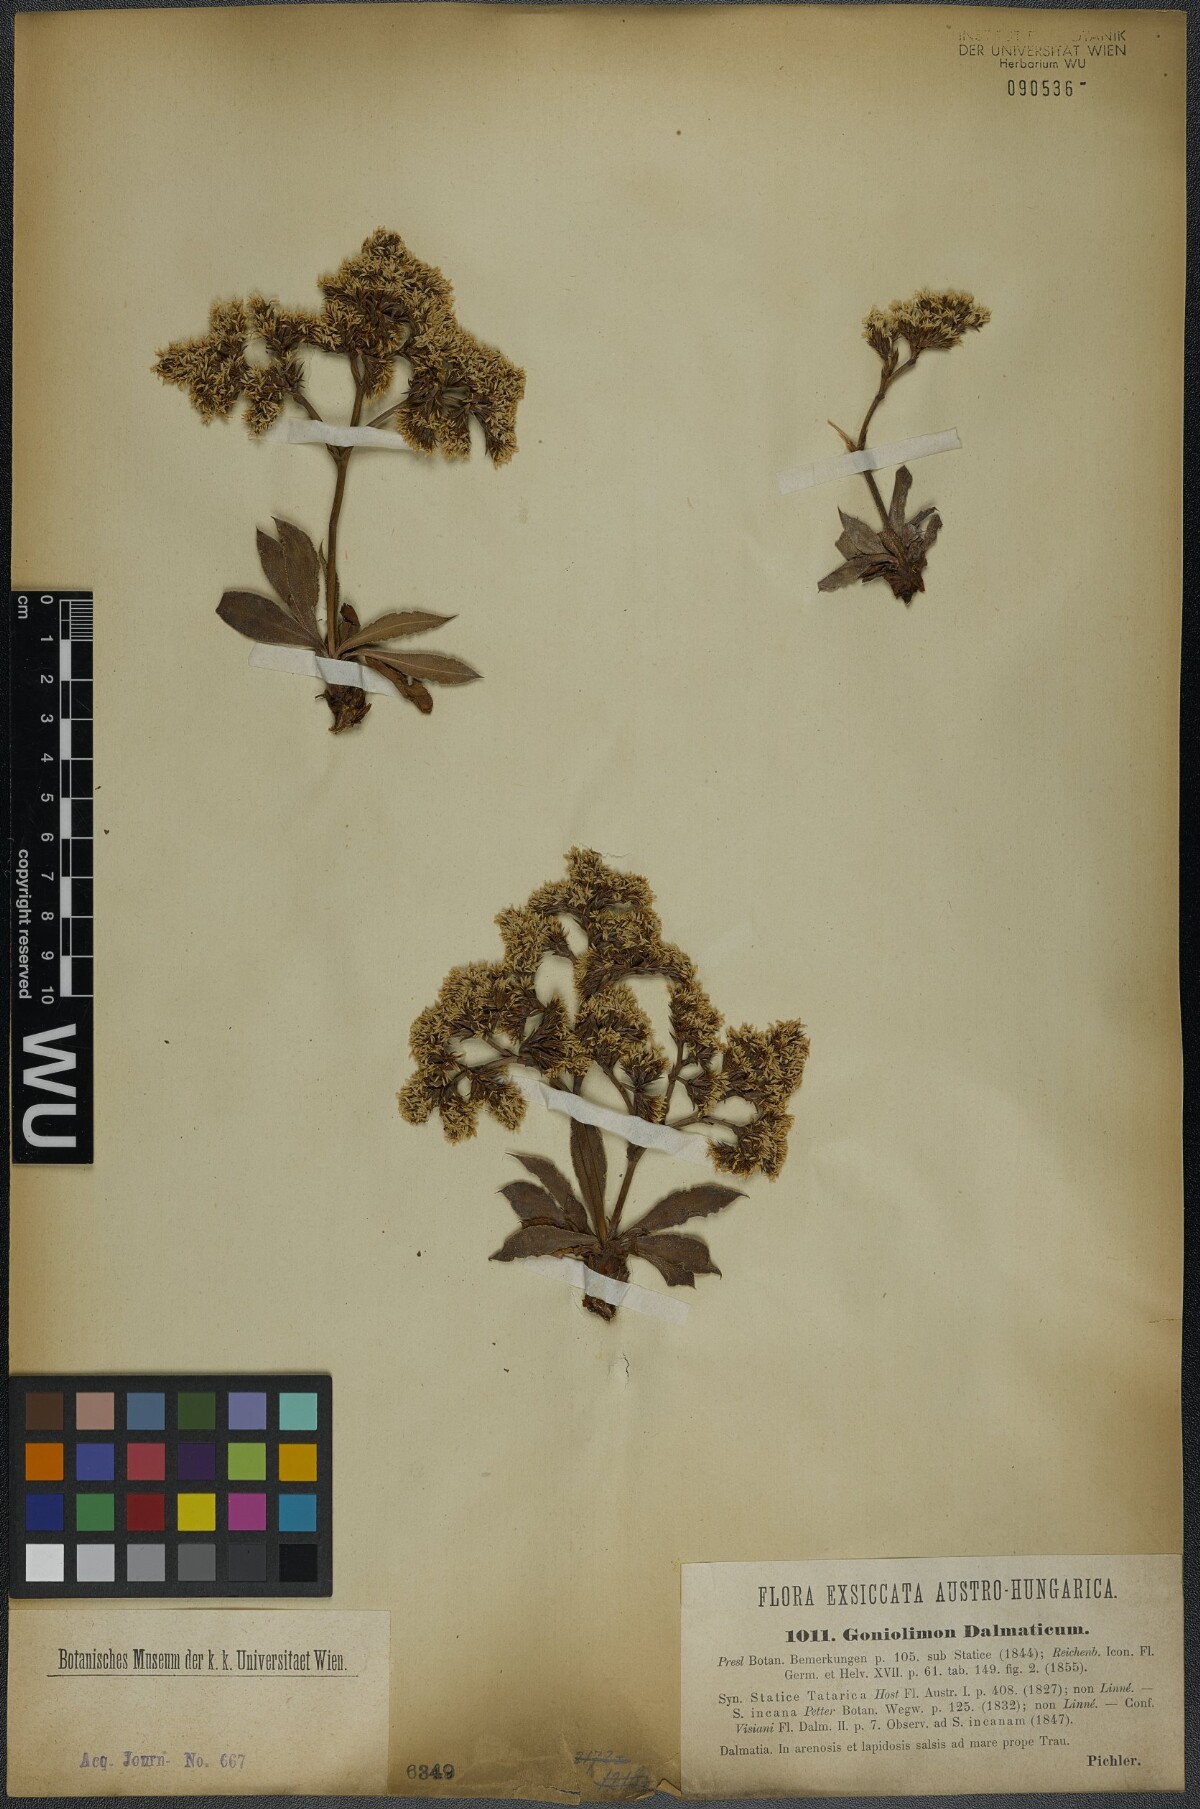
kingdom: Plantae
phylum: Tracheophyta
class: Magnoliopsida
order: Caryophyllales
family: Plumbaginaceae
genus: Goniolimon
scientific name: Goniolimon dalmaticum
